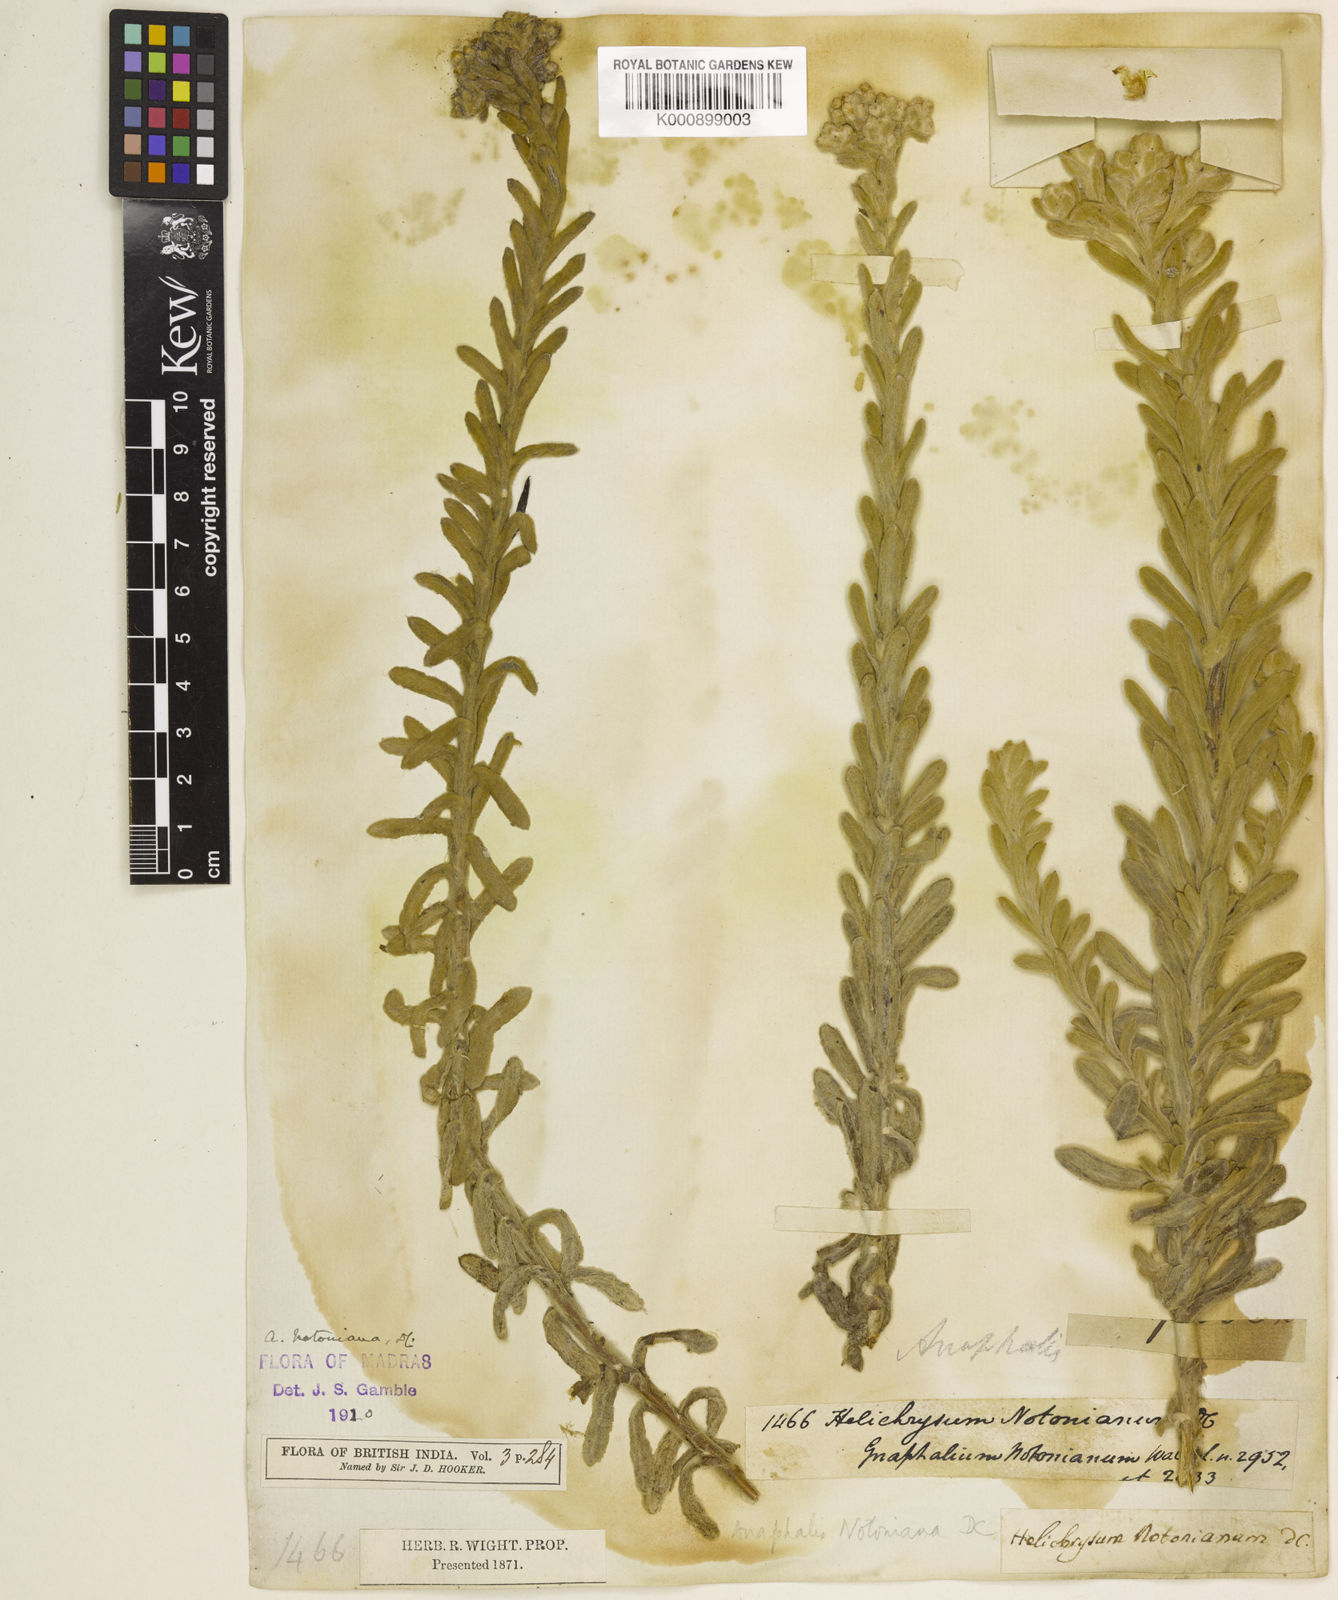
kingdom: Plantae
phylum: Tracheophyta
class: Magnoliopsida
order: Asterales
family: Asteraceae
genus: Anaphalis
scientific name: Anaphalis notoniana
